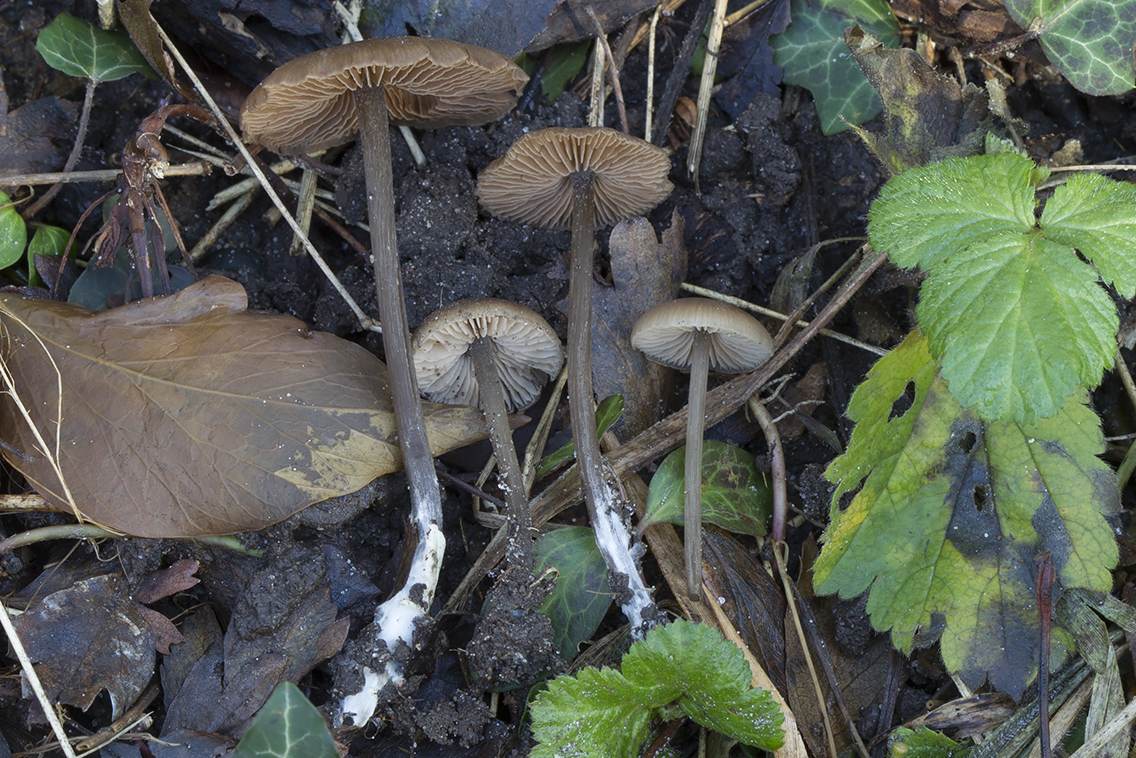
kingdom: Fungi
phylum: Basidiomycota
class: Agaricomycetes
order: Agaricales
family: Entolomataceae
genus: Entoloma
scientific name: Entoloma
